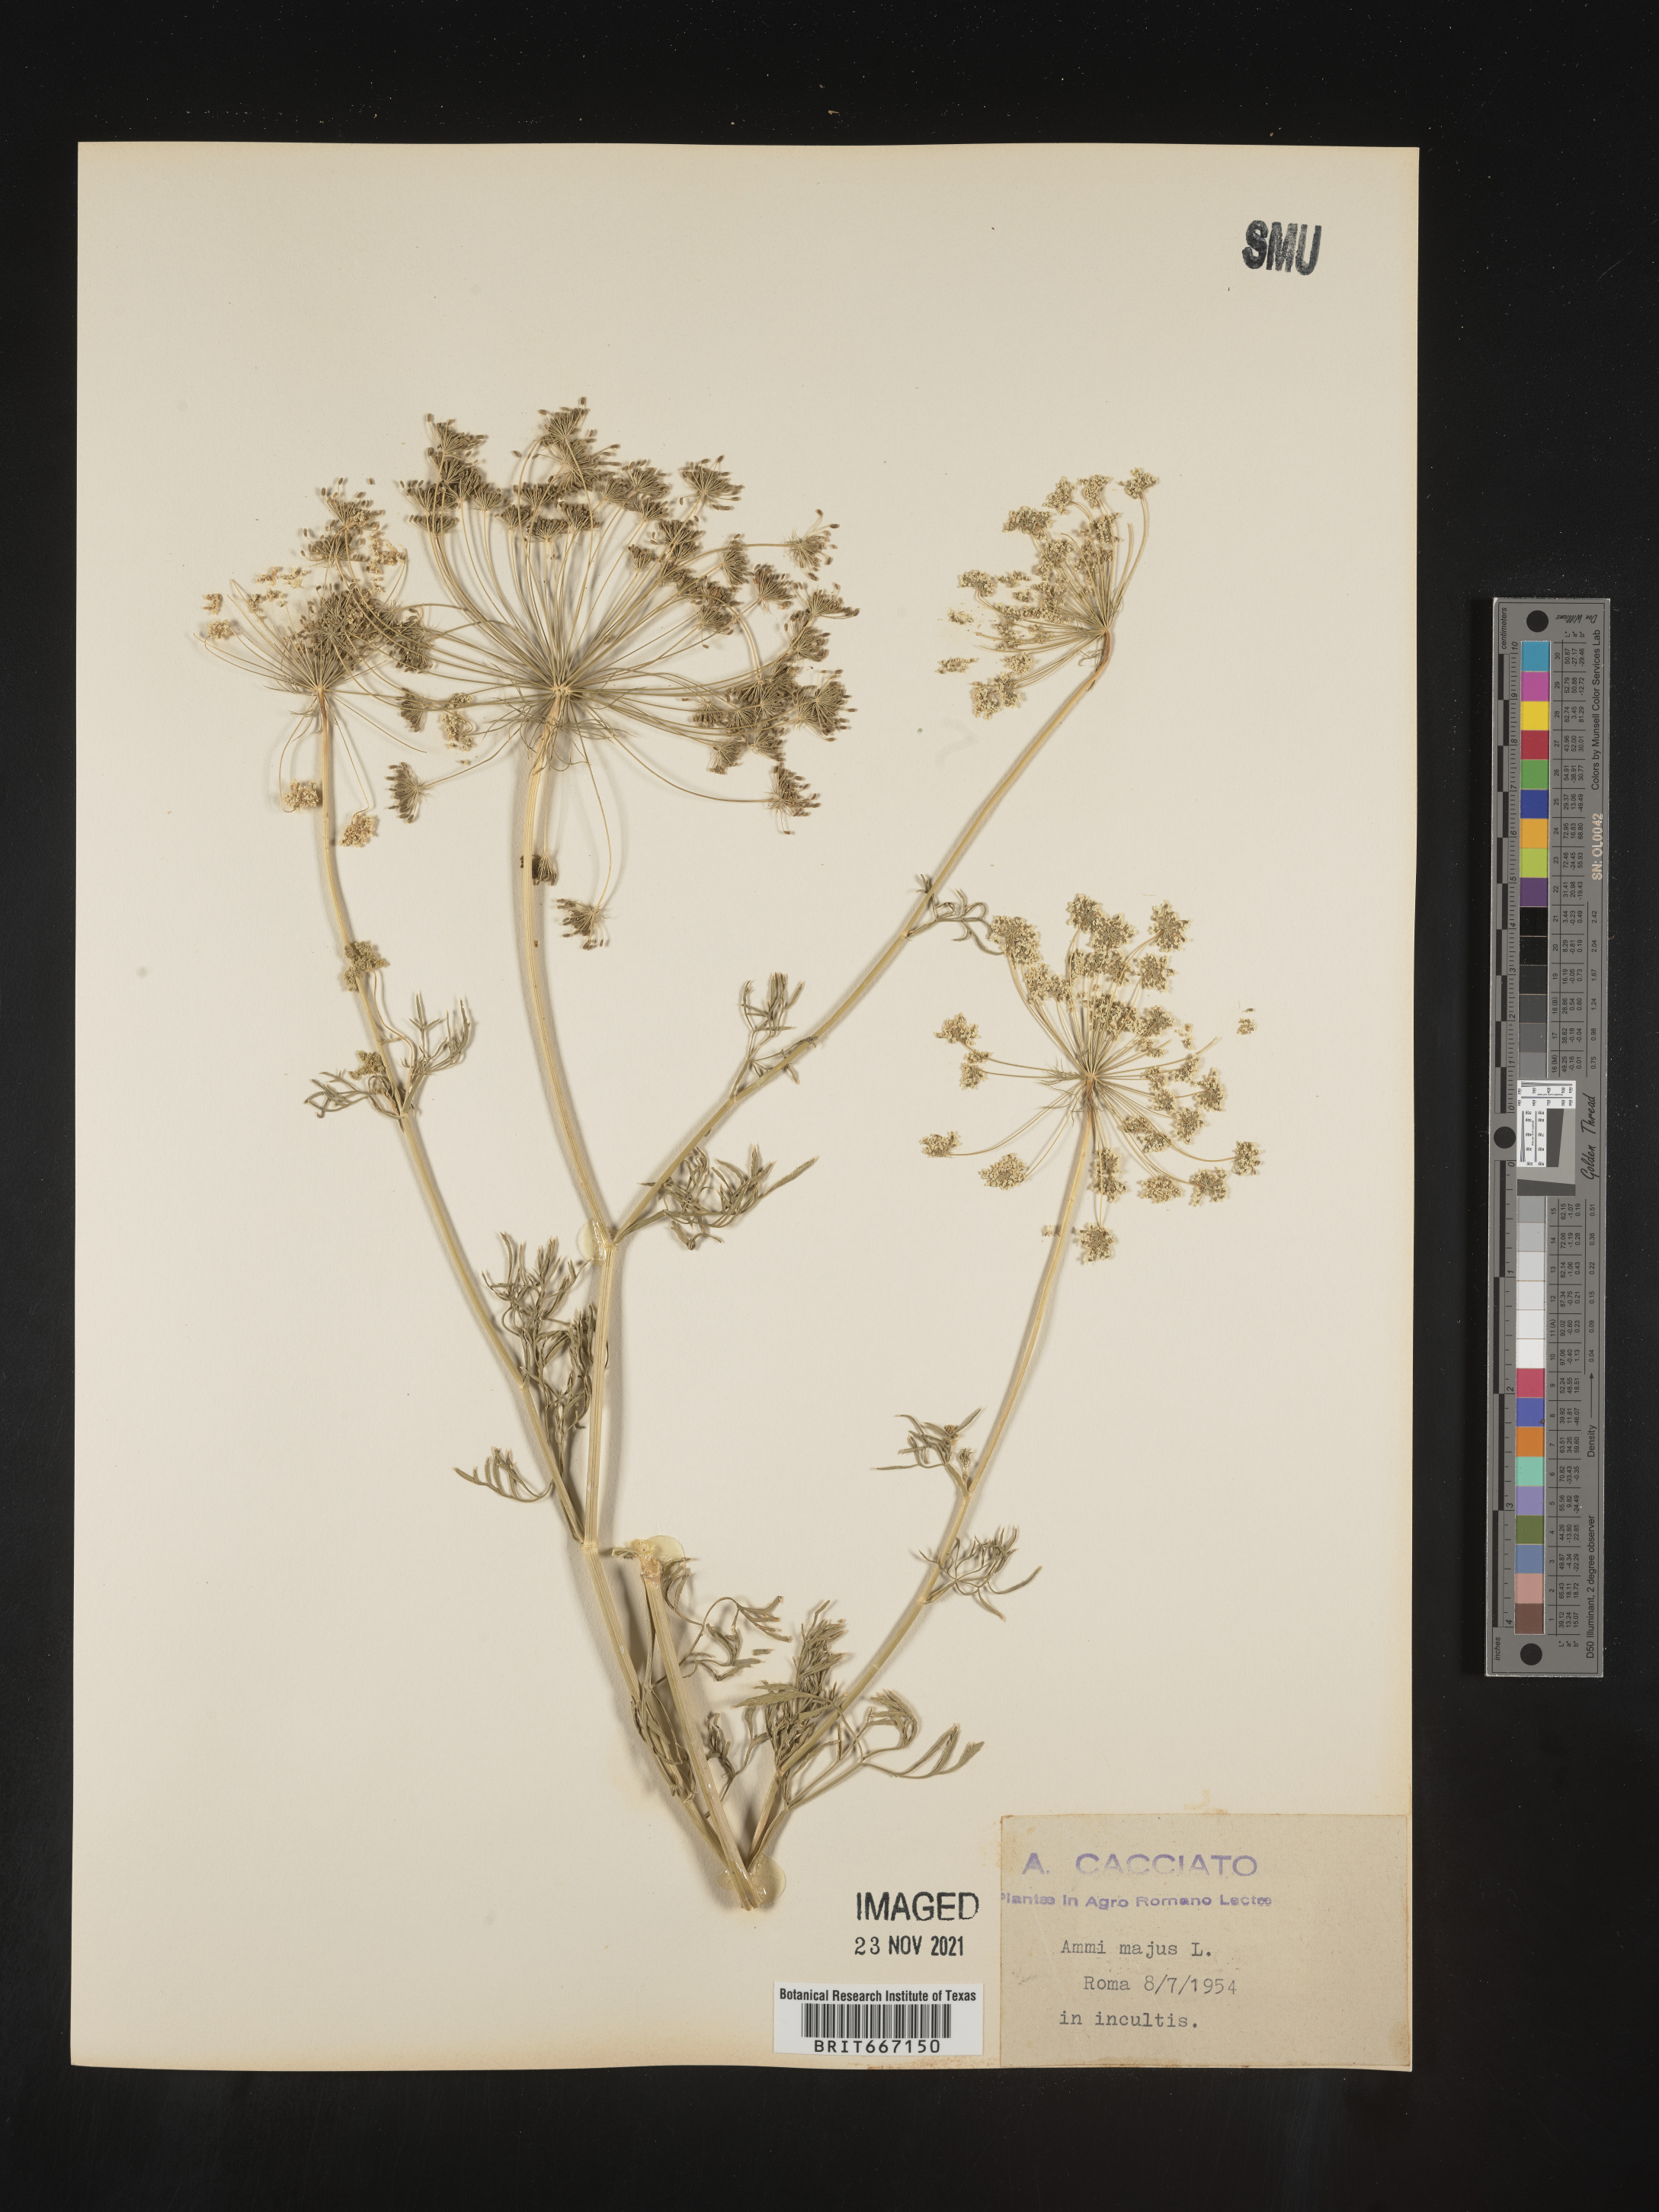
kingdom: Plantae
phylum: Tracheophyta
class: Magnoliopsida
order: Apiales
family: Apiaceae
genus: Ammi
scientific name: Ammi
